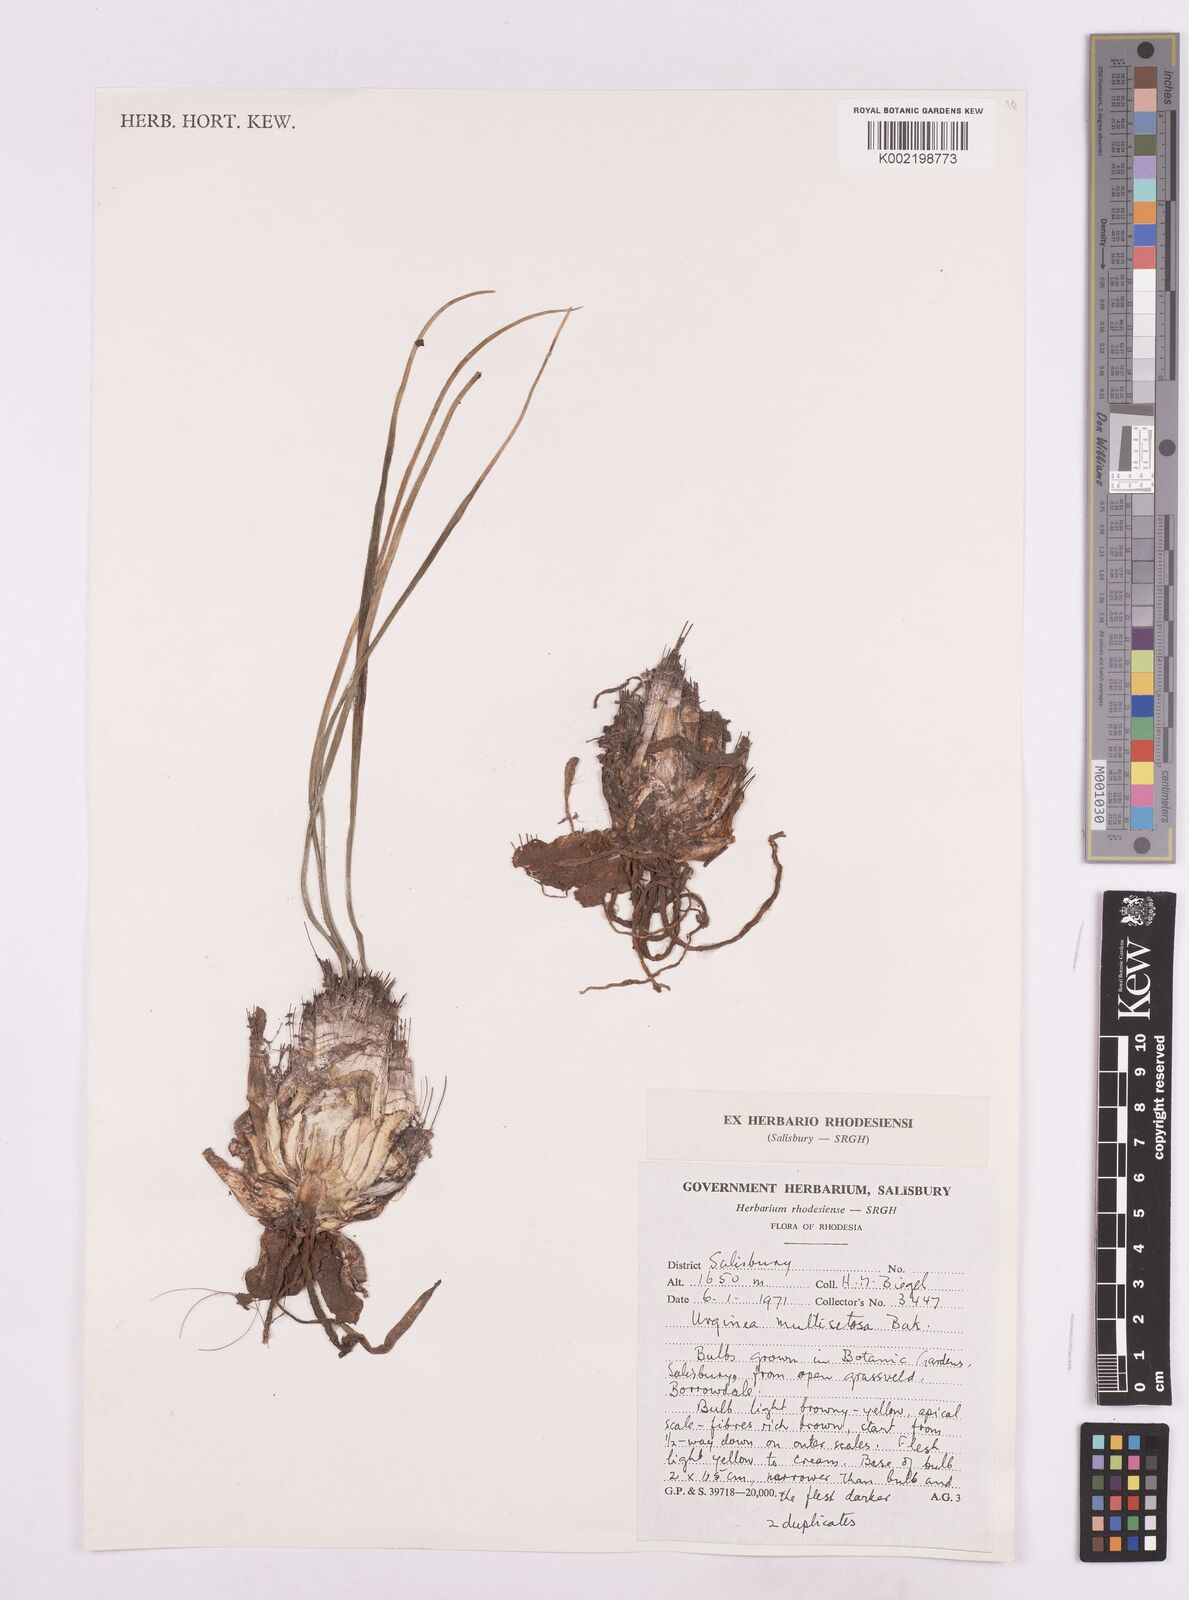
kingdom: Plantae
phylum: Tracheophyta
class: Liliopsida
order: Asparagales
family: Asparagaceae
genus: Drimia
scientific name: Drimia multisetosa
